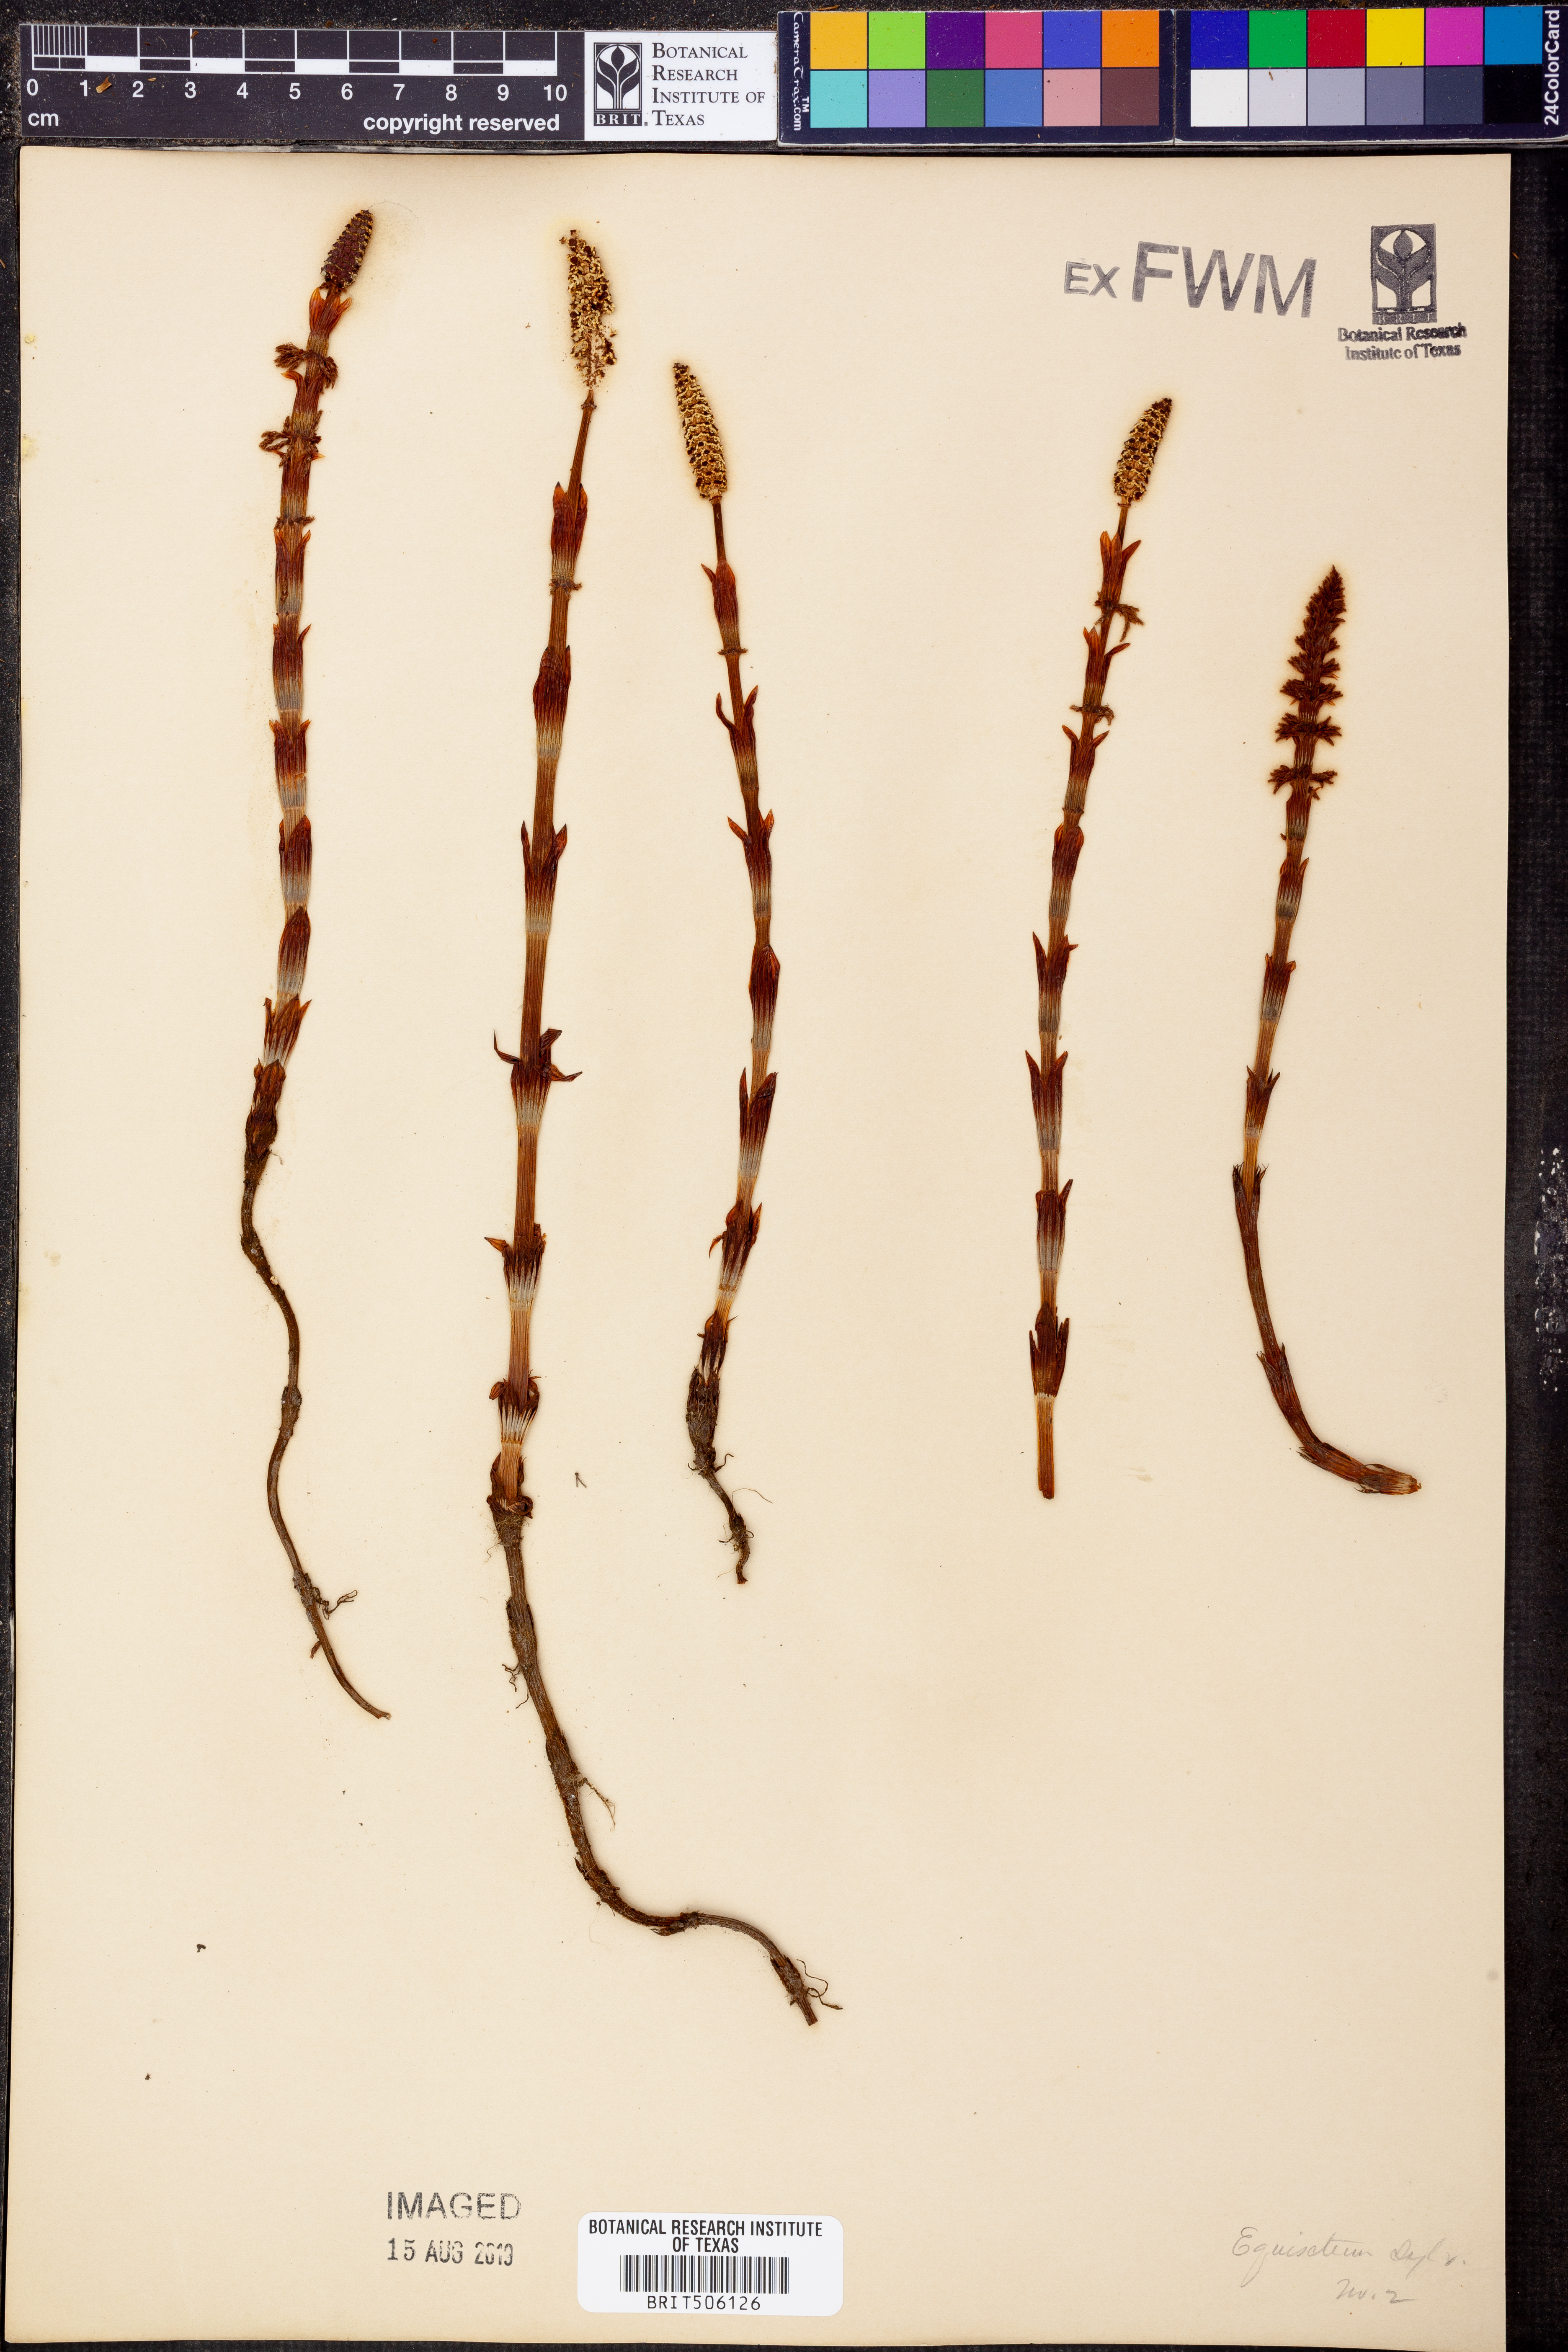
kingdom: Plantae
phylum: Tracheophyta
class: Polypodiopsida
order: Equisetales
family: Equisetaceae
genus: Equisetum
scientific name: Equisetum
